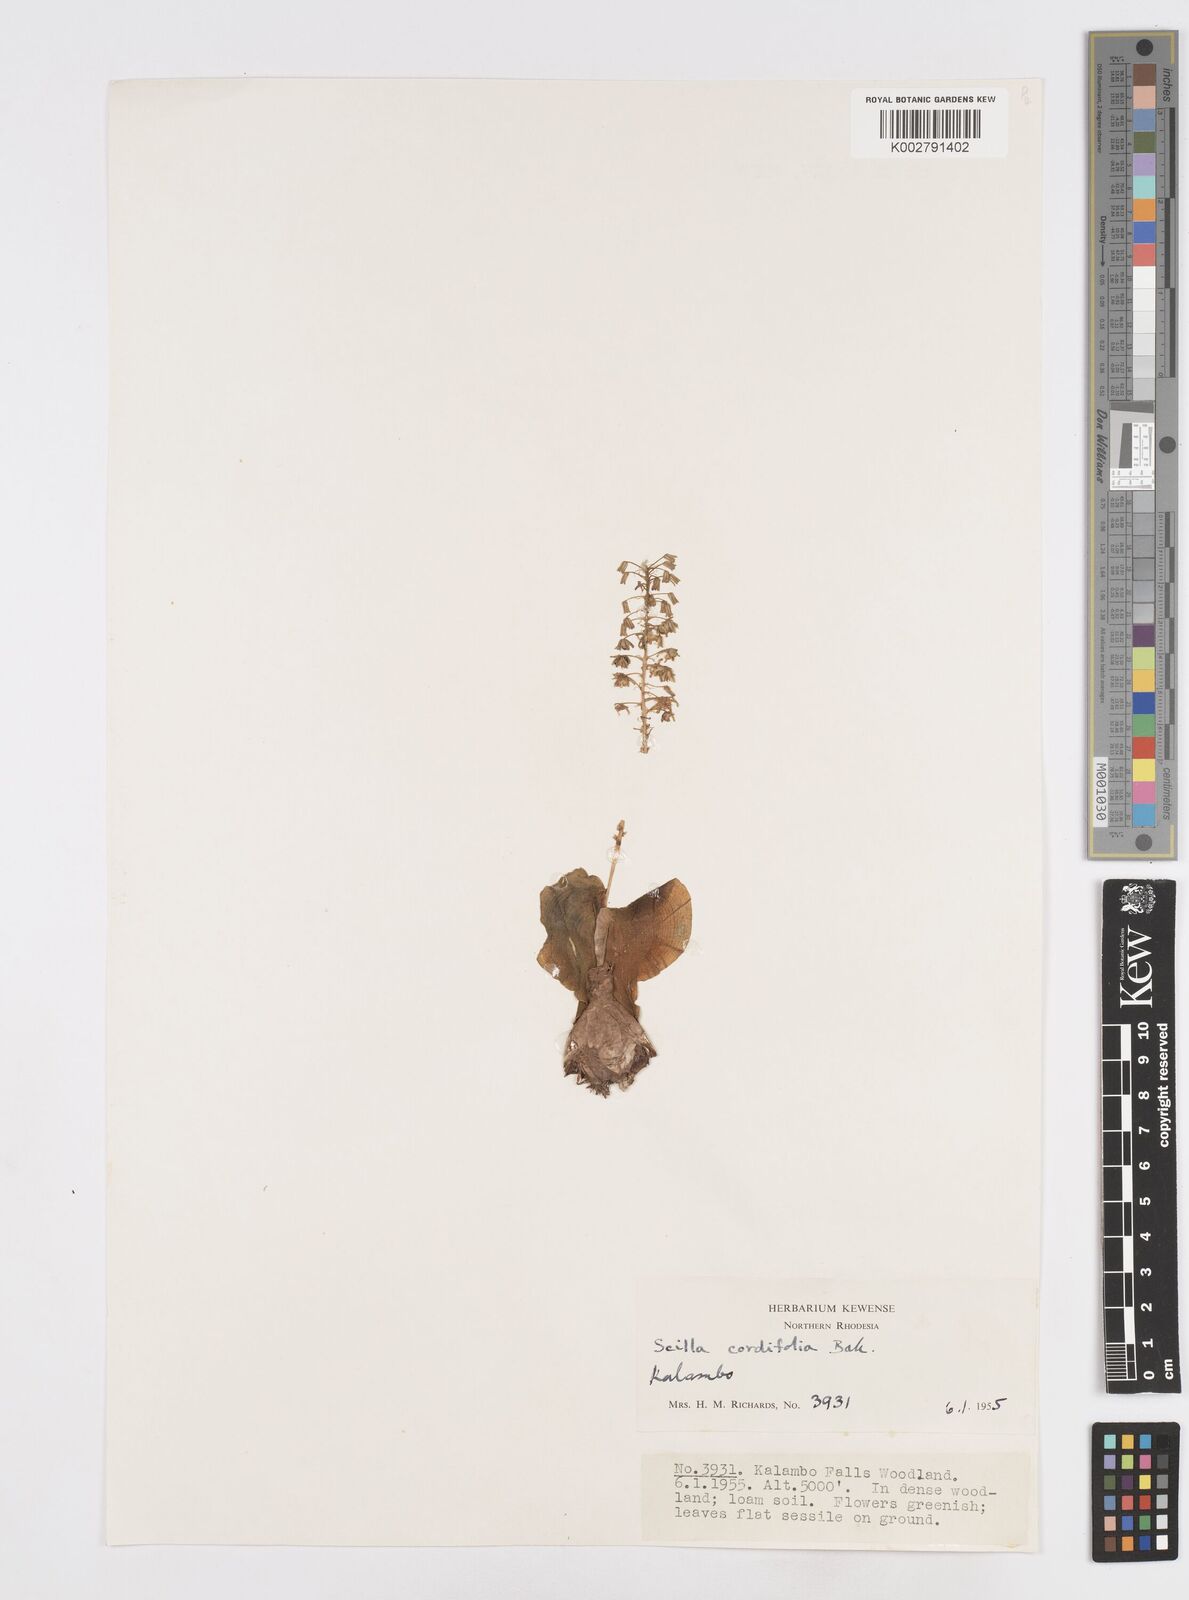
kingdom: Plantae
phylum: Tracheophyta
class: Liliopsida
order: Asparagales
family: Asparagaceae
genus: Ledebouria
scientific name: Ledebouria cordifolia
